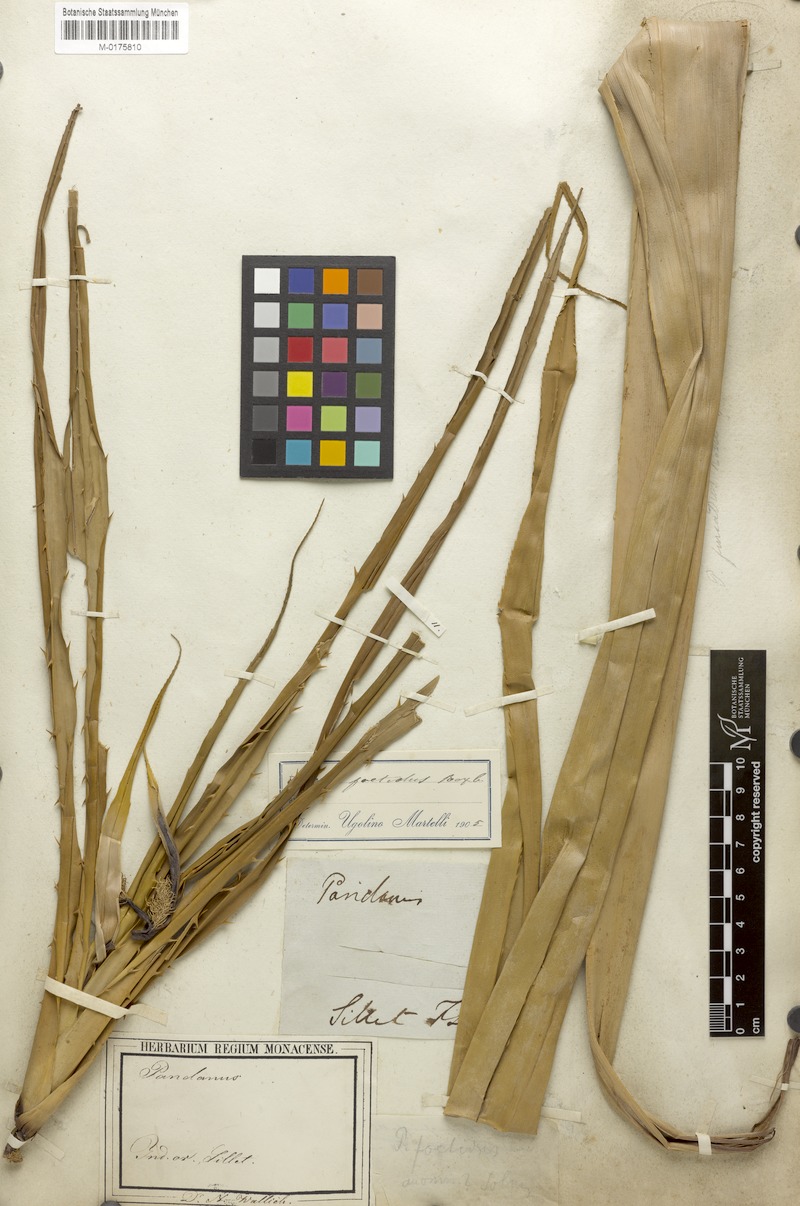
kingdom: Plantae
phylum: Tracheophyta
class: Liliopsida
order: Pandanales
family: Pandanaceae
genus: Benstonea
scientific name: Benstonea foetida
